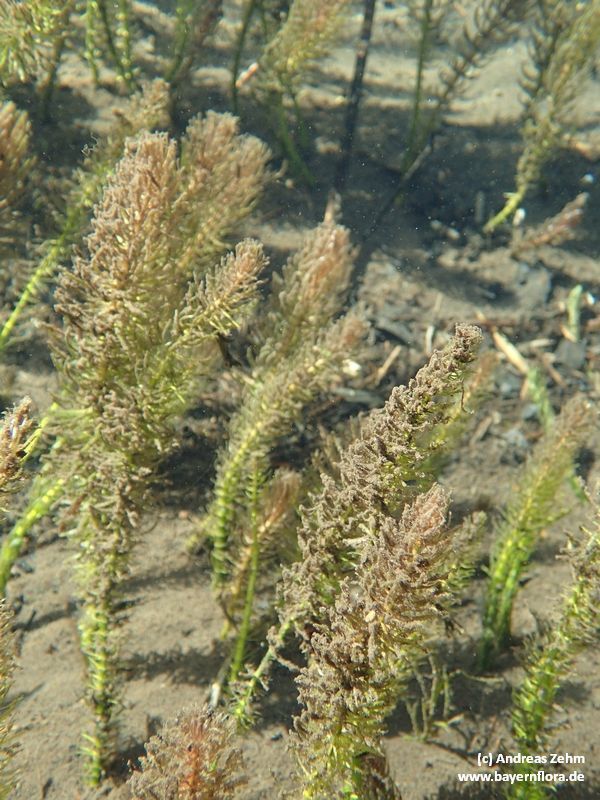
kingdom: Plantae
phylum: Tracheophyta
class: Magnoliopsida
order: Lamiales
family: Plantaginaceae
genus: Hippuris
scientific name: Hippuris vulgaris
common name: Mare's-tail
